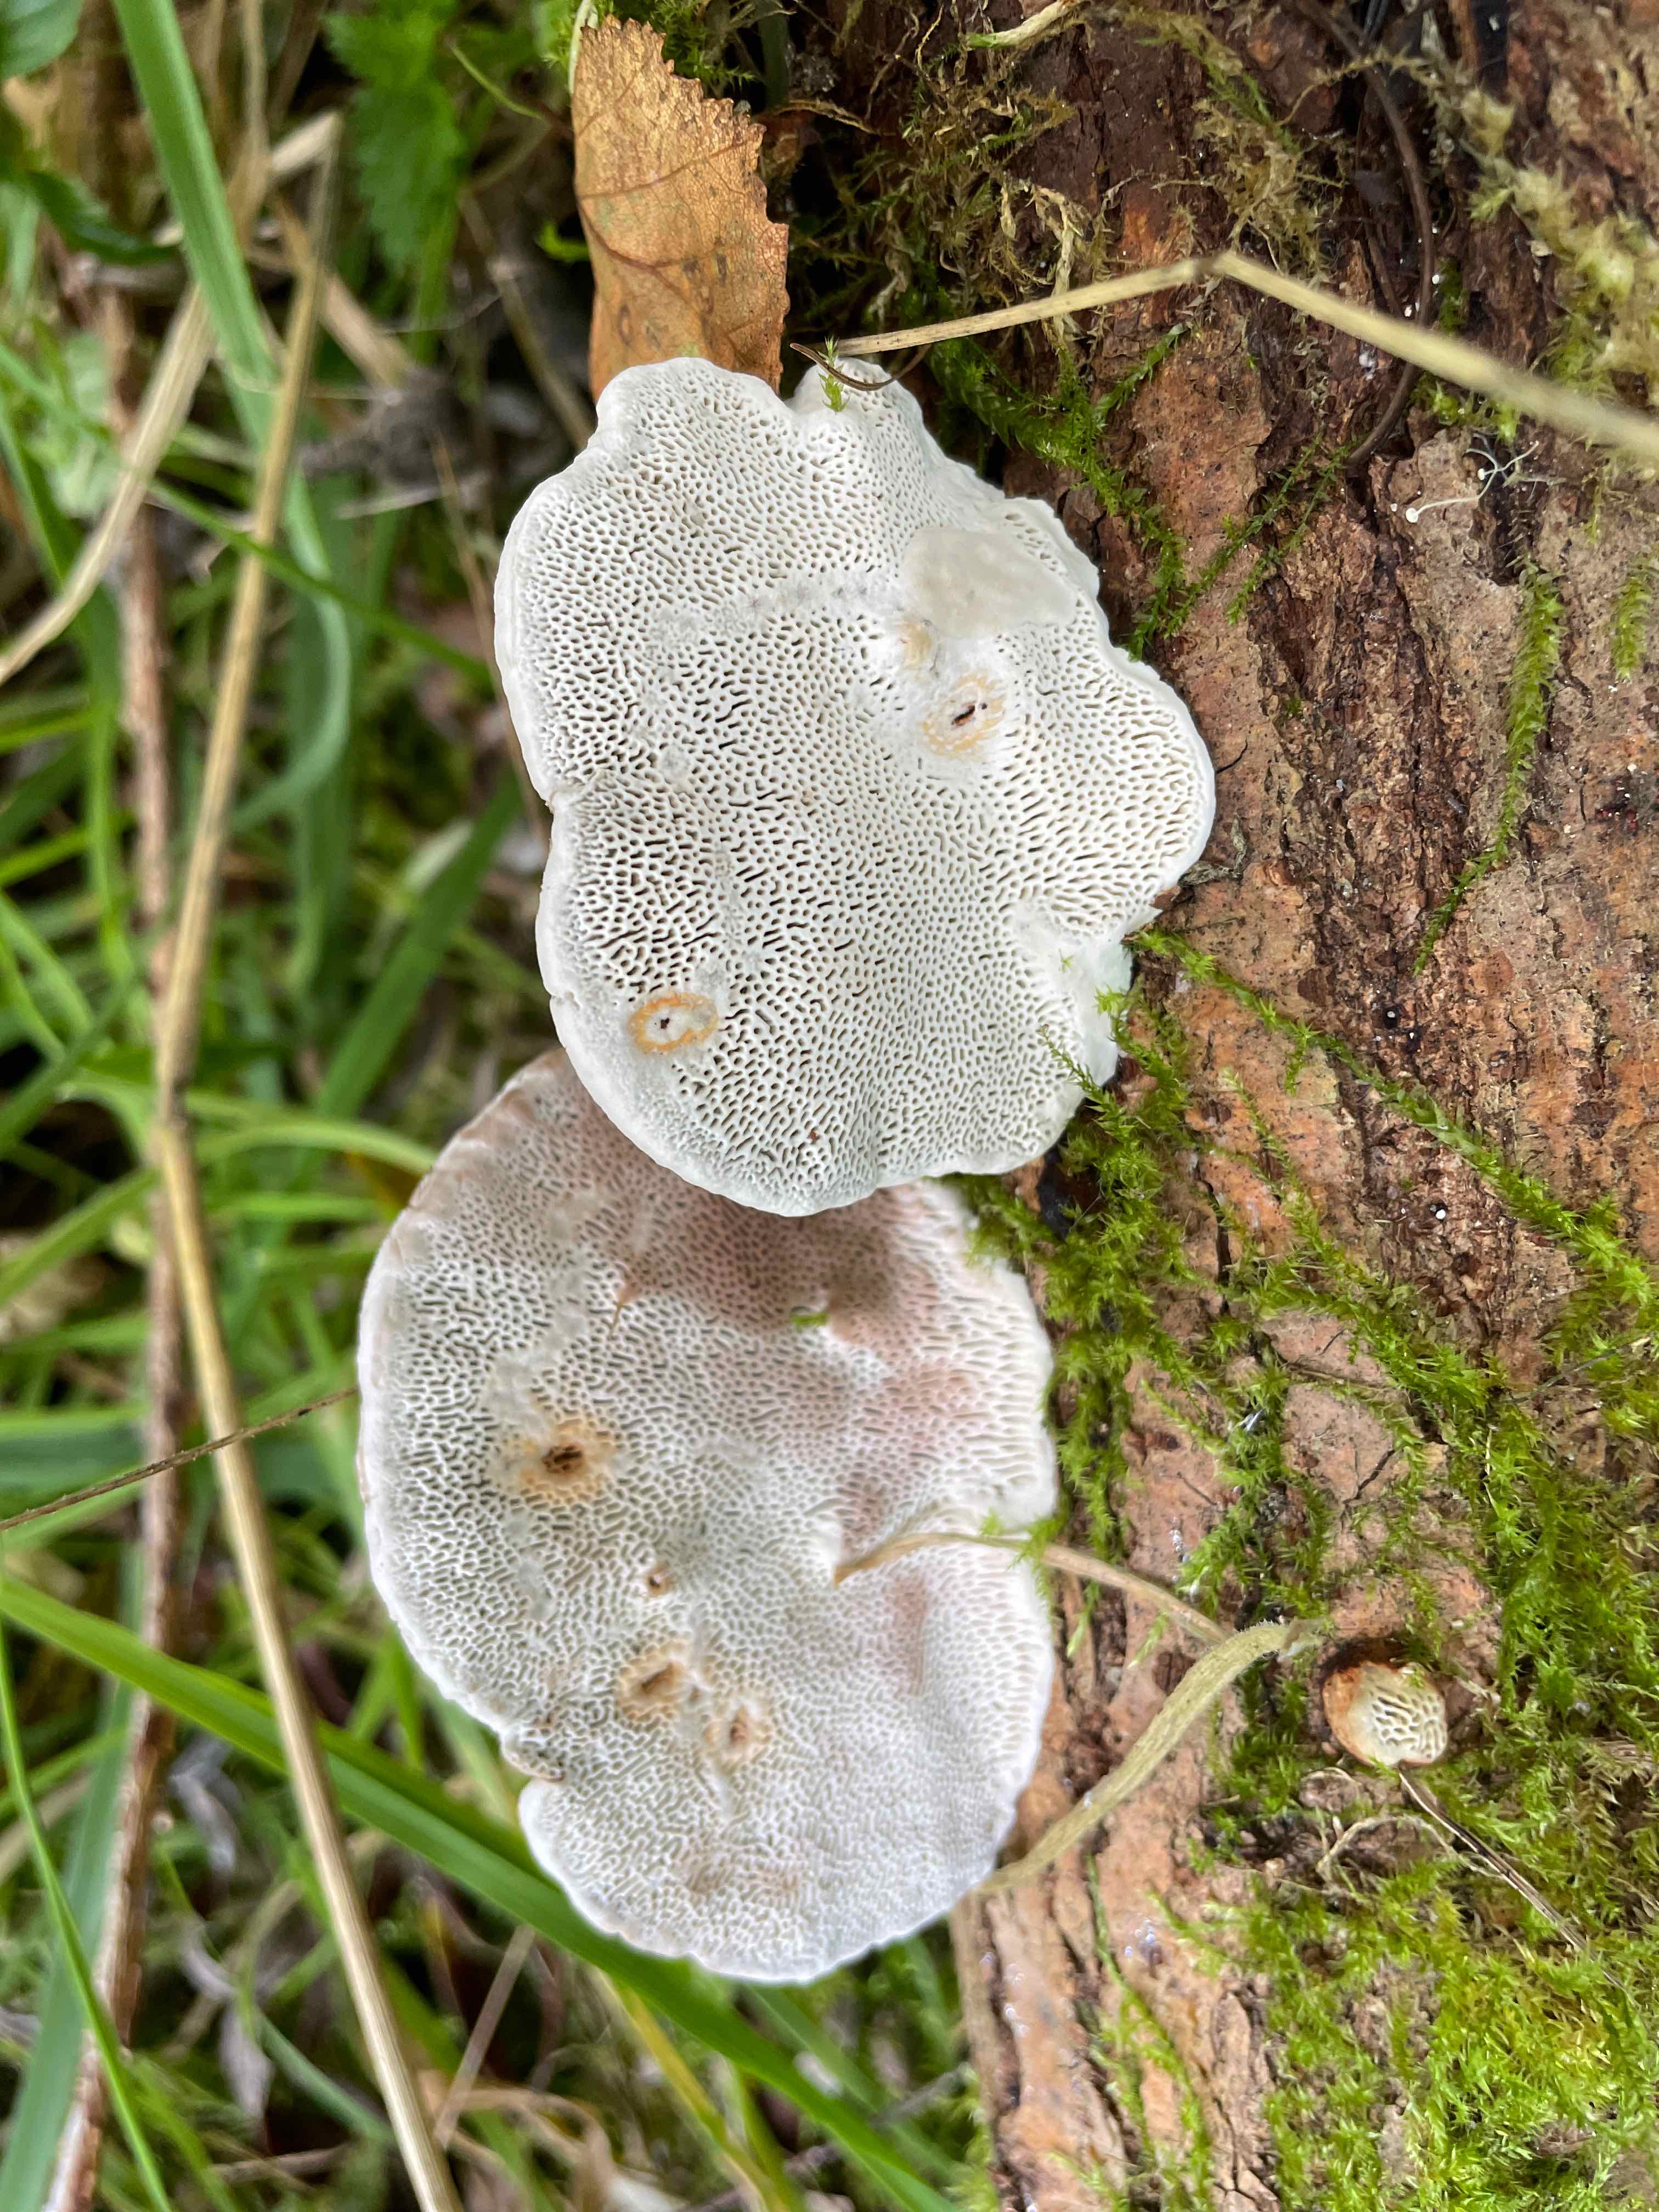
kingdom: Fungi
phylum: Basidiomycota
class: Agaricomycetes
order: Polyporales
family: Polyporaceae
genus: Daedaleopsis
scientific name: Daedaleopsis confragosa
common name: rødmende læderporesvamp
